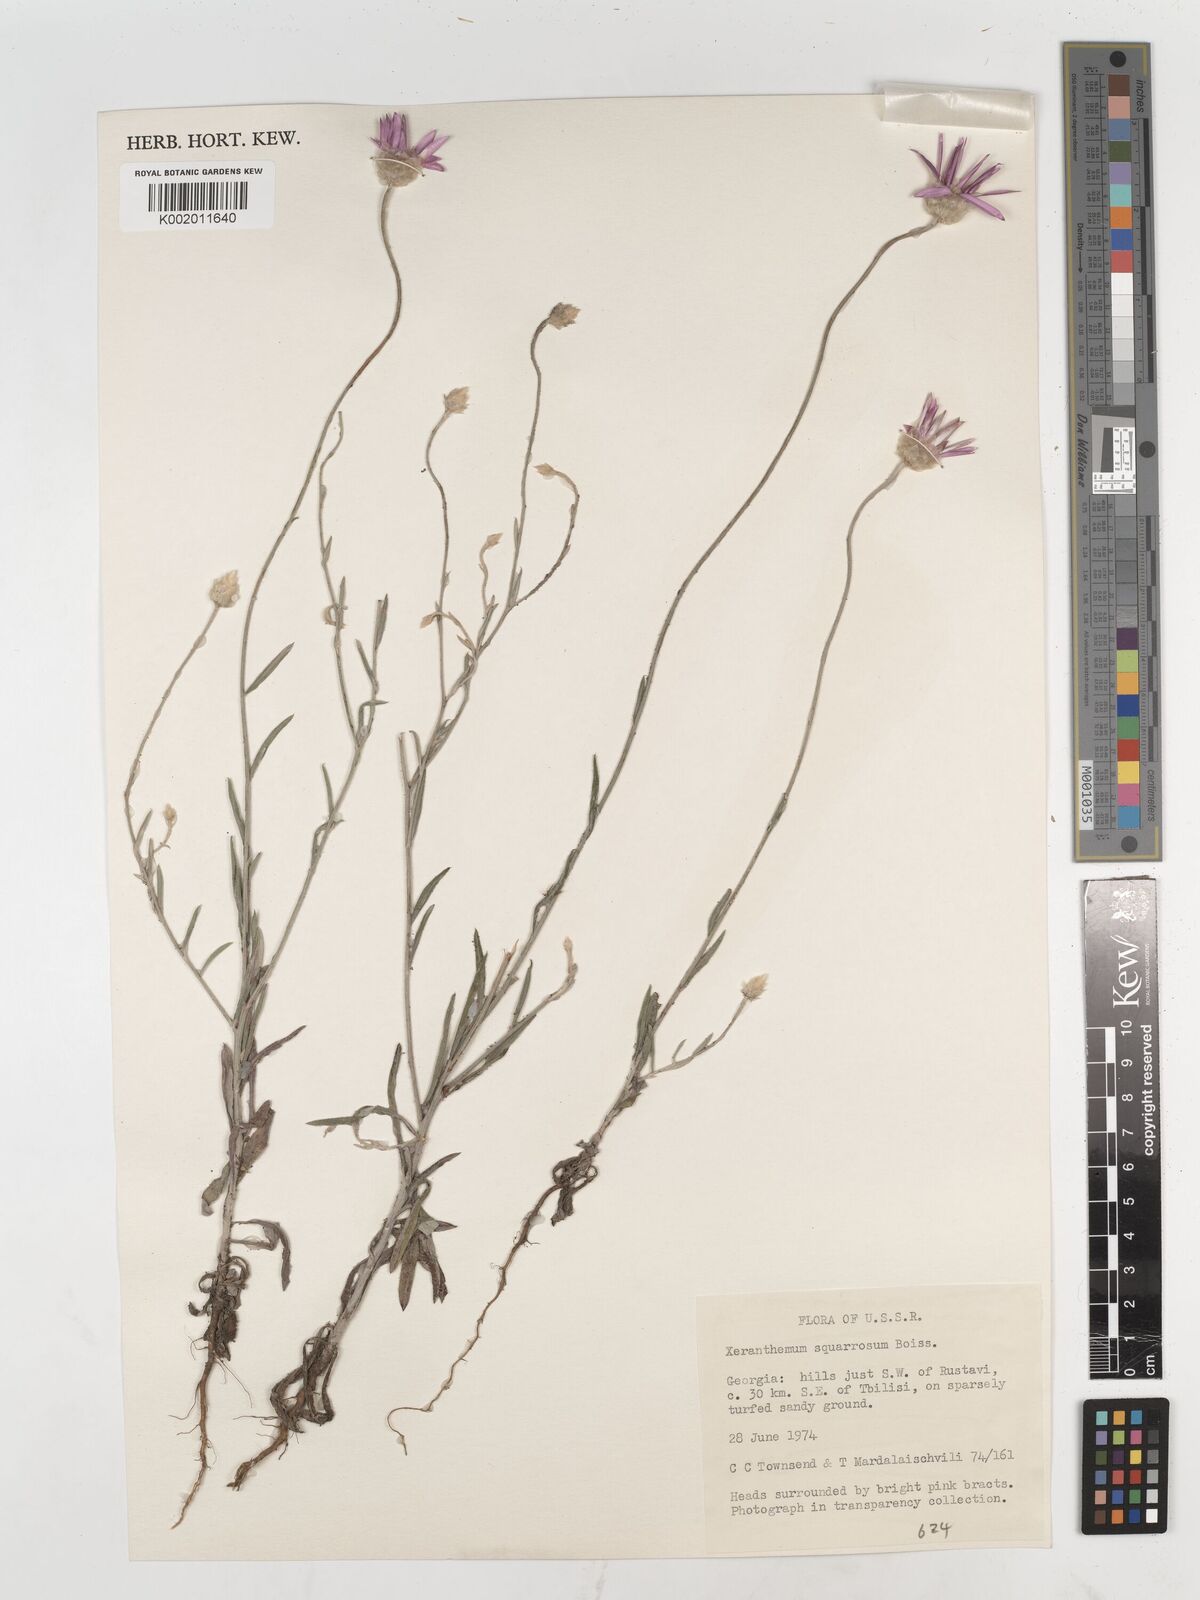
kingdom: Plantae
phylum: Tracheophyta
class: Magnoliopsida
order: Asterales
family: Asteraceae
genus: Xeranthemum
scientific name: Xeranthemum squarrosum
